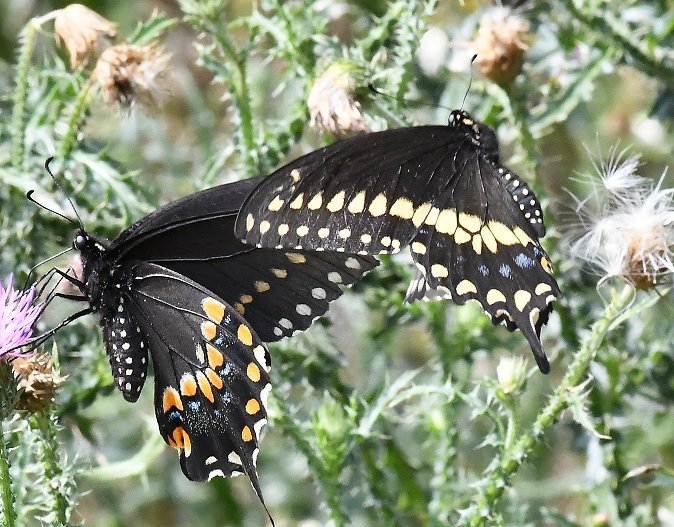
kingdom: Animalia
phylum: Arthropoda
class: Insecta
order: Lepidoptera
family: Papilionidae
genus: Papilio
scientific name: Papilio polyxenes
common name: Black Swallowtail
